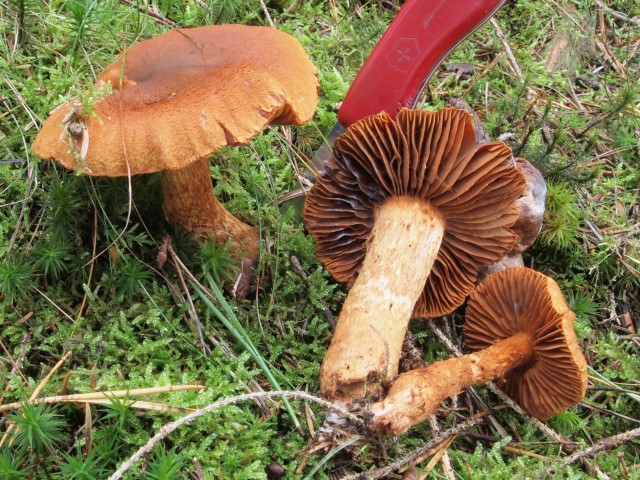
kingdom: Fungi
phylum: Basidiomycota
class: Agaricomycetes
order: Agaricales
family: Cortinariaceae
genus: Cortinarius
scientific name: Cortinarius rubellus
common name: puklet gift-slørhat
